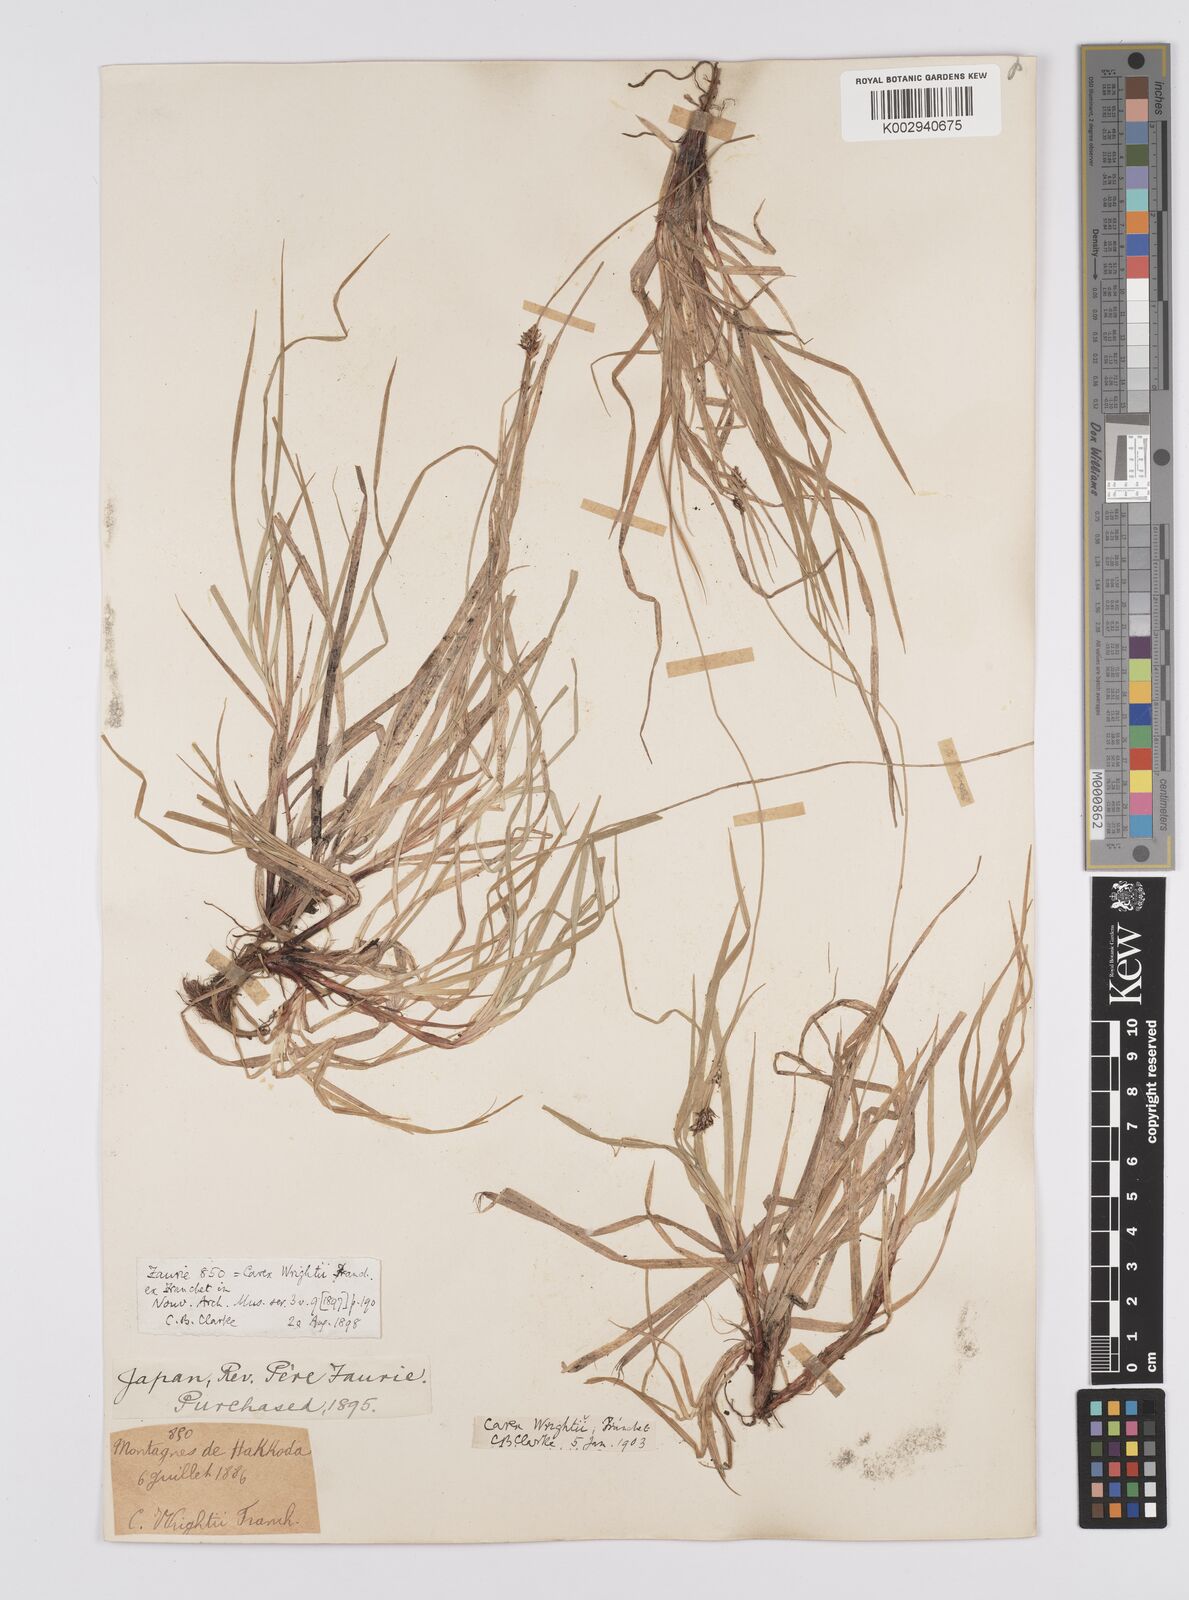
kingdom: Plantae
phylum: Tracheophyta
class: Liliopsida
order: Poales
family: Cyperaceae
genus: Carex
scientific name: Carex oxyandra
